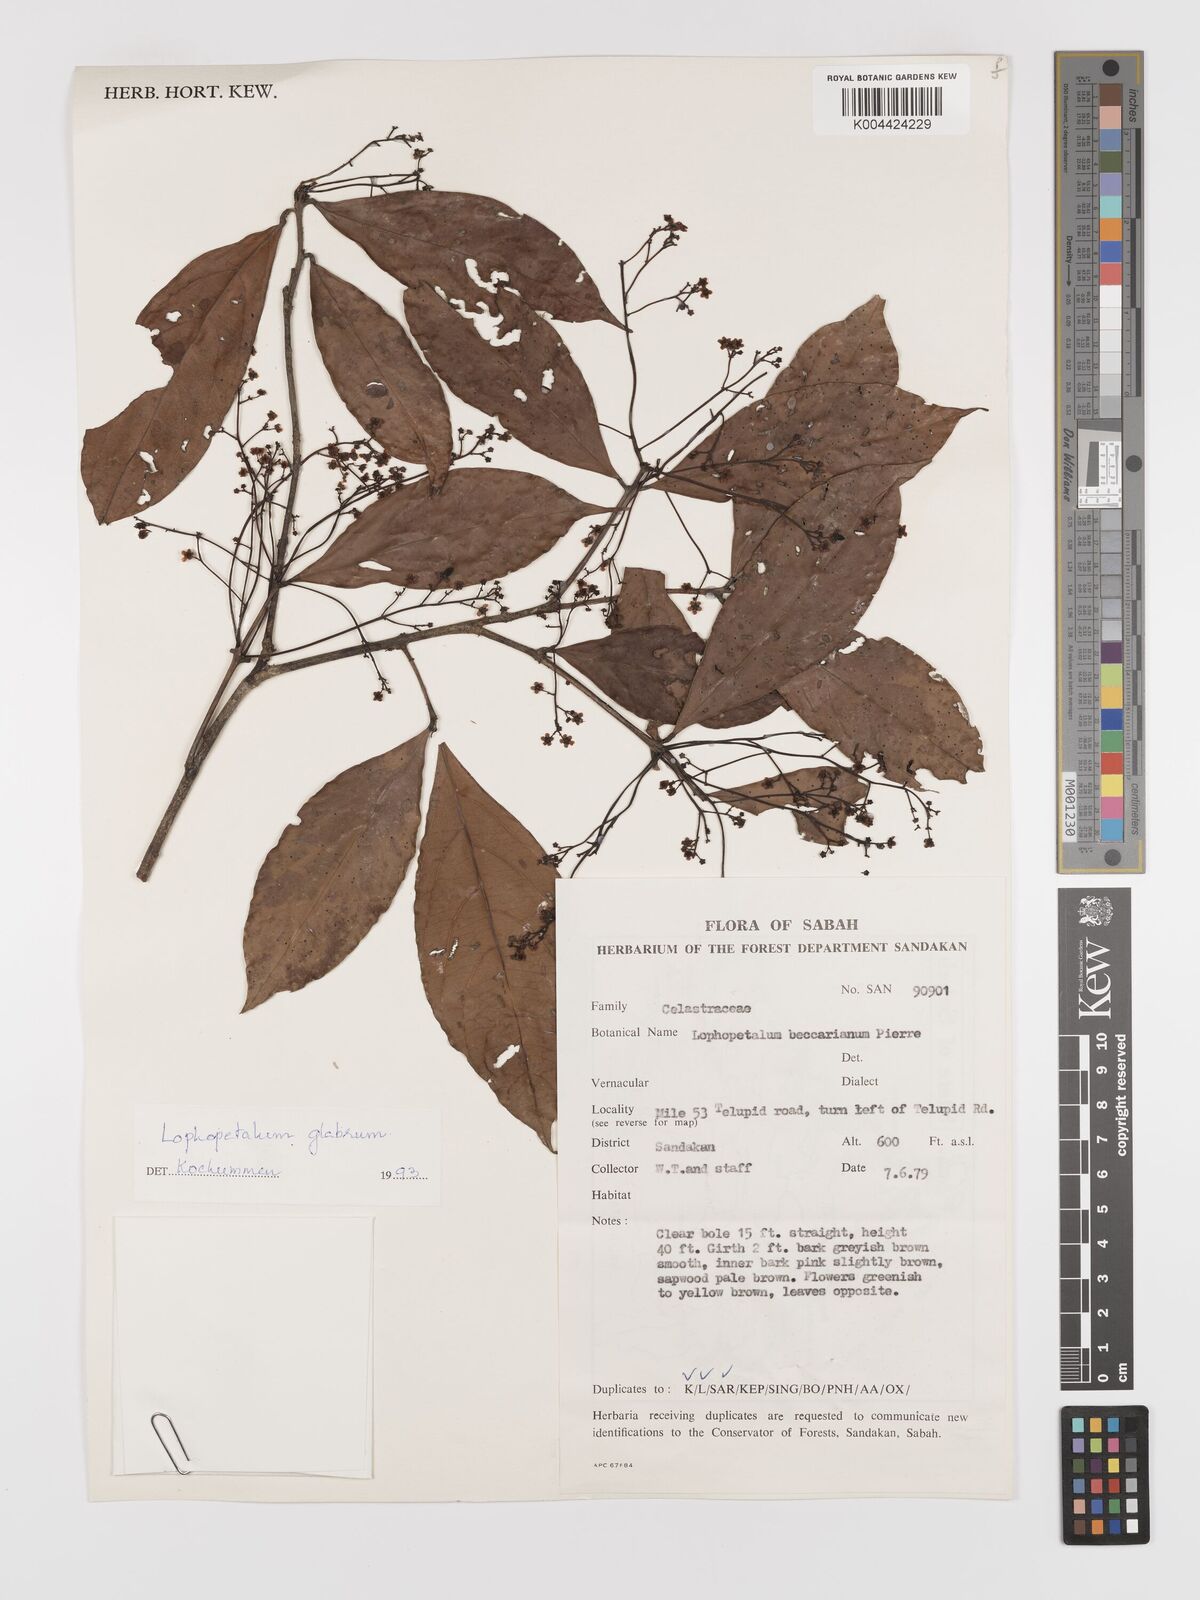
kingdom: Plantae
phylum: Tracheophyta
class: Magnoliopsida
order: Celastrales
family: Celastraceae
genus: Lophopetalum
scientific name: Lophopetalum glabrum
